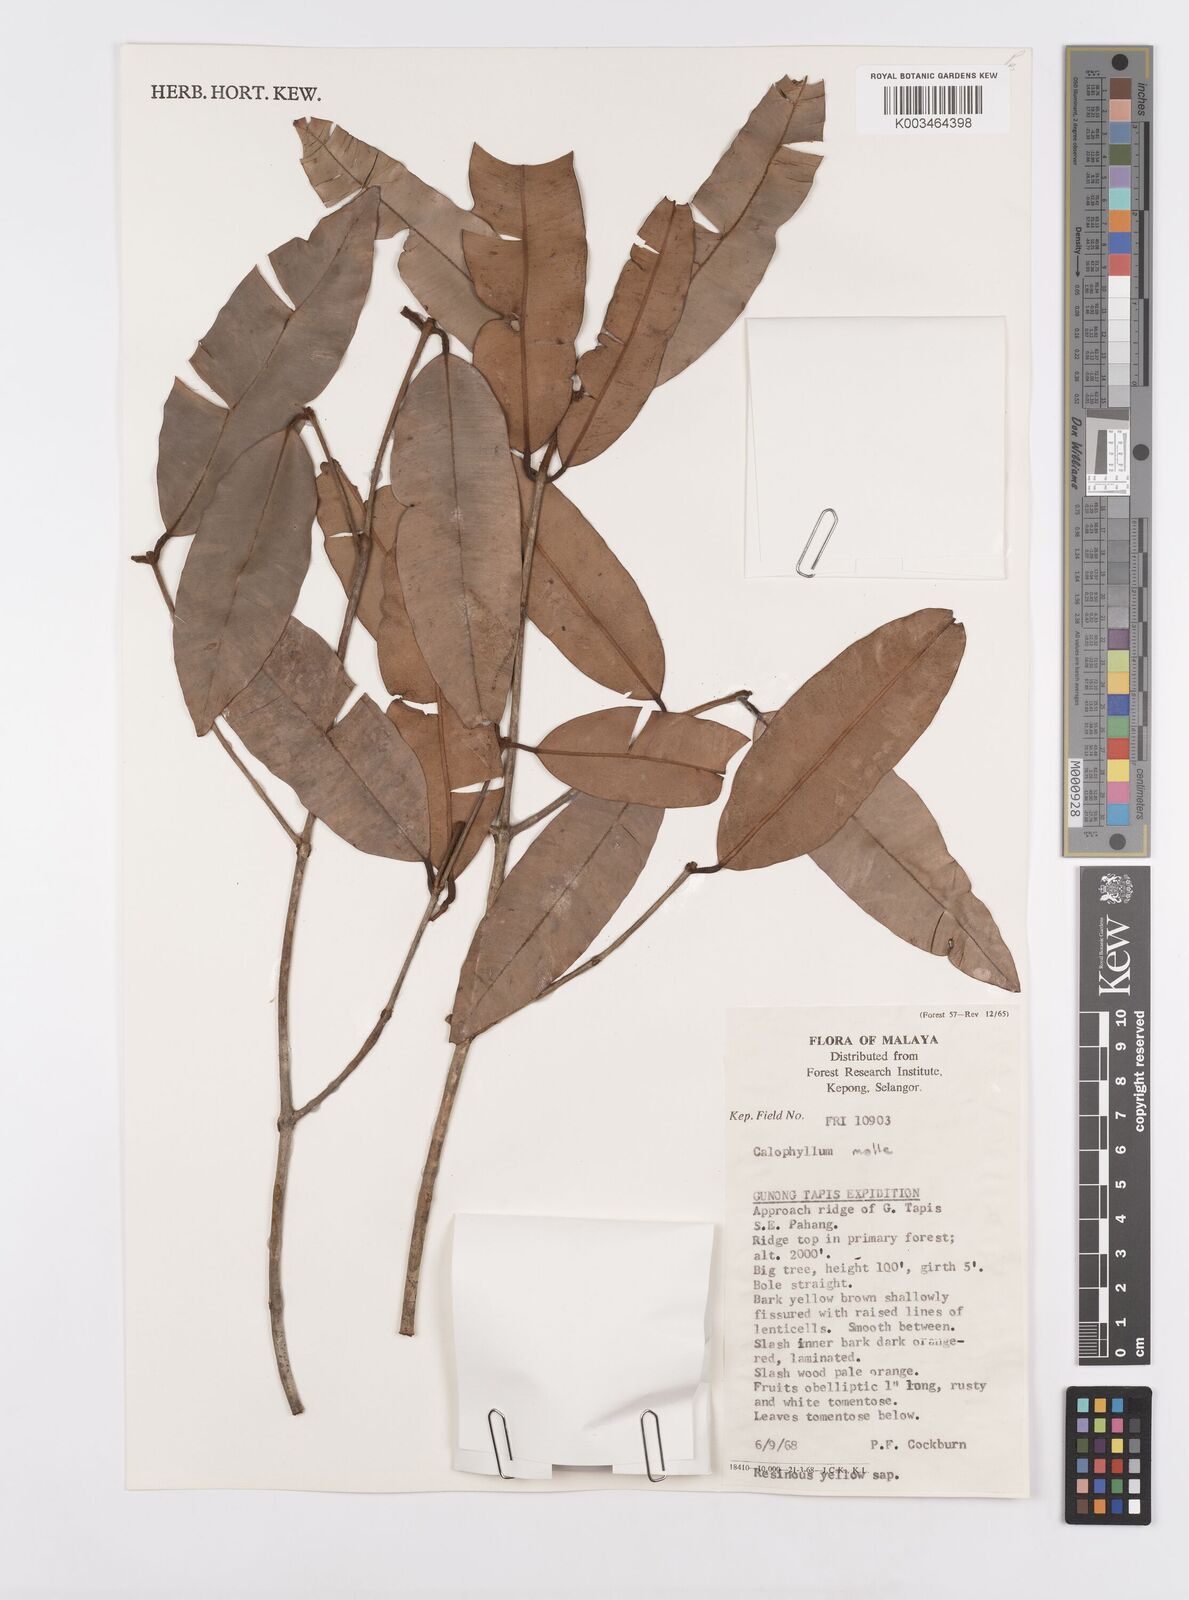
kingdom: Plantae
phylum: Tracheophyta
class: Magnoliopsida
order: Malpighiales
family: Calophyllaceae
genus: Calophyllum
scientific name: Calophyllum molle
